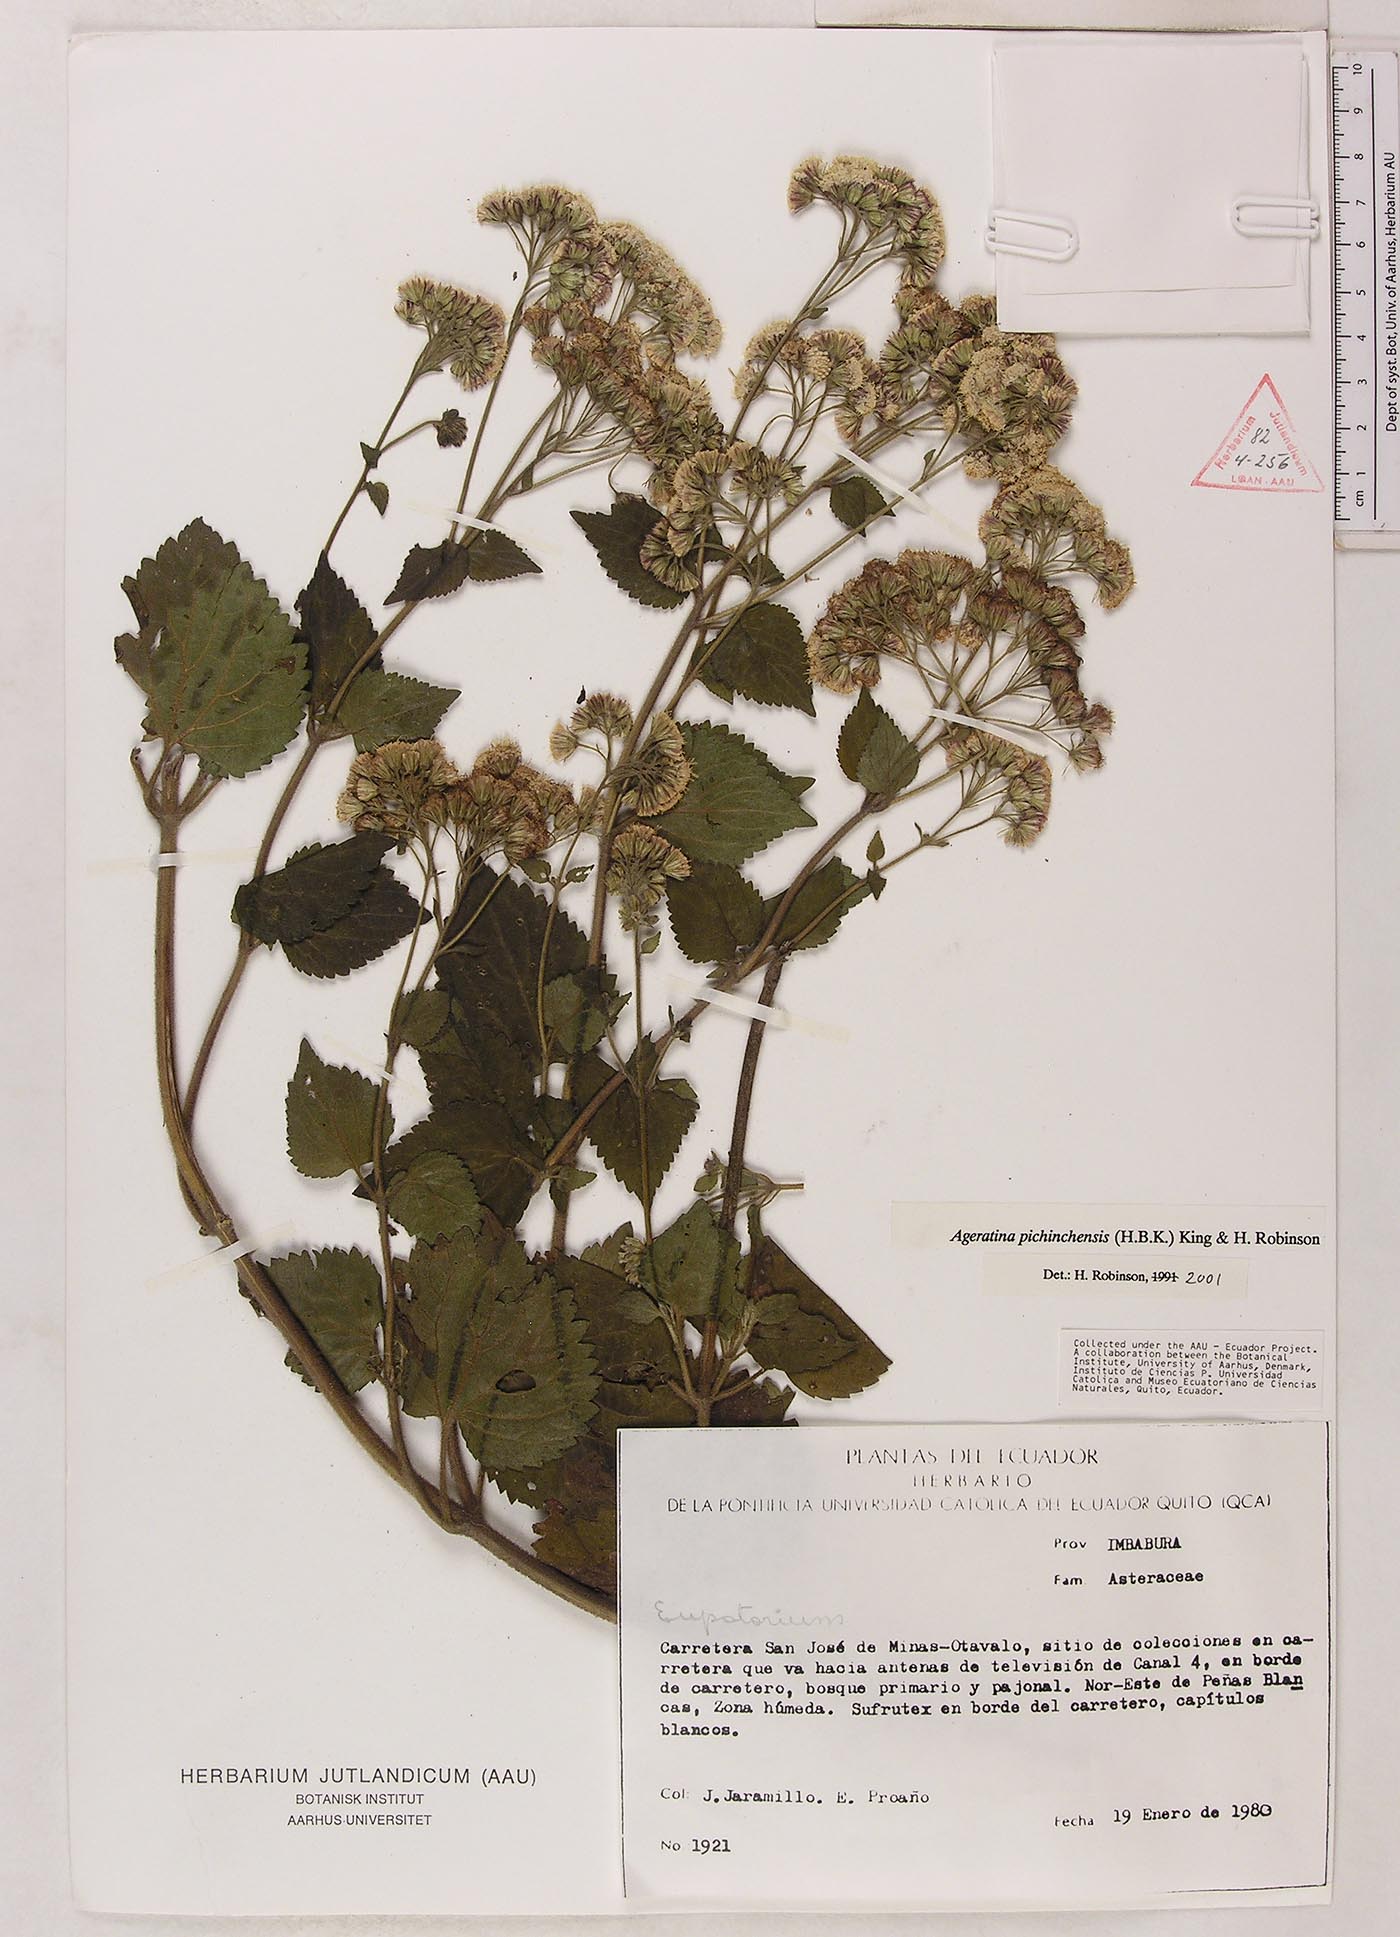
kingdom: Plantae
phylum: Tracheophyta
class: Magnoliopsida
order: Asterales
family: Asteraceae
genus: Ageratina
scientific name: Ageratina pichinchensis
